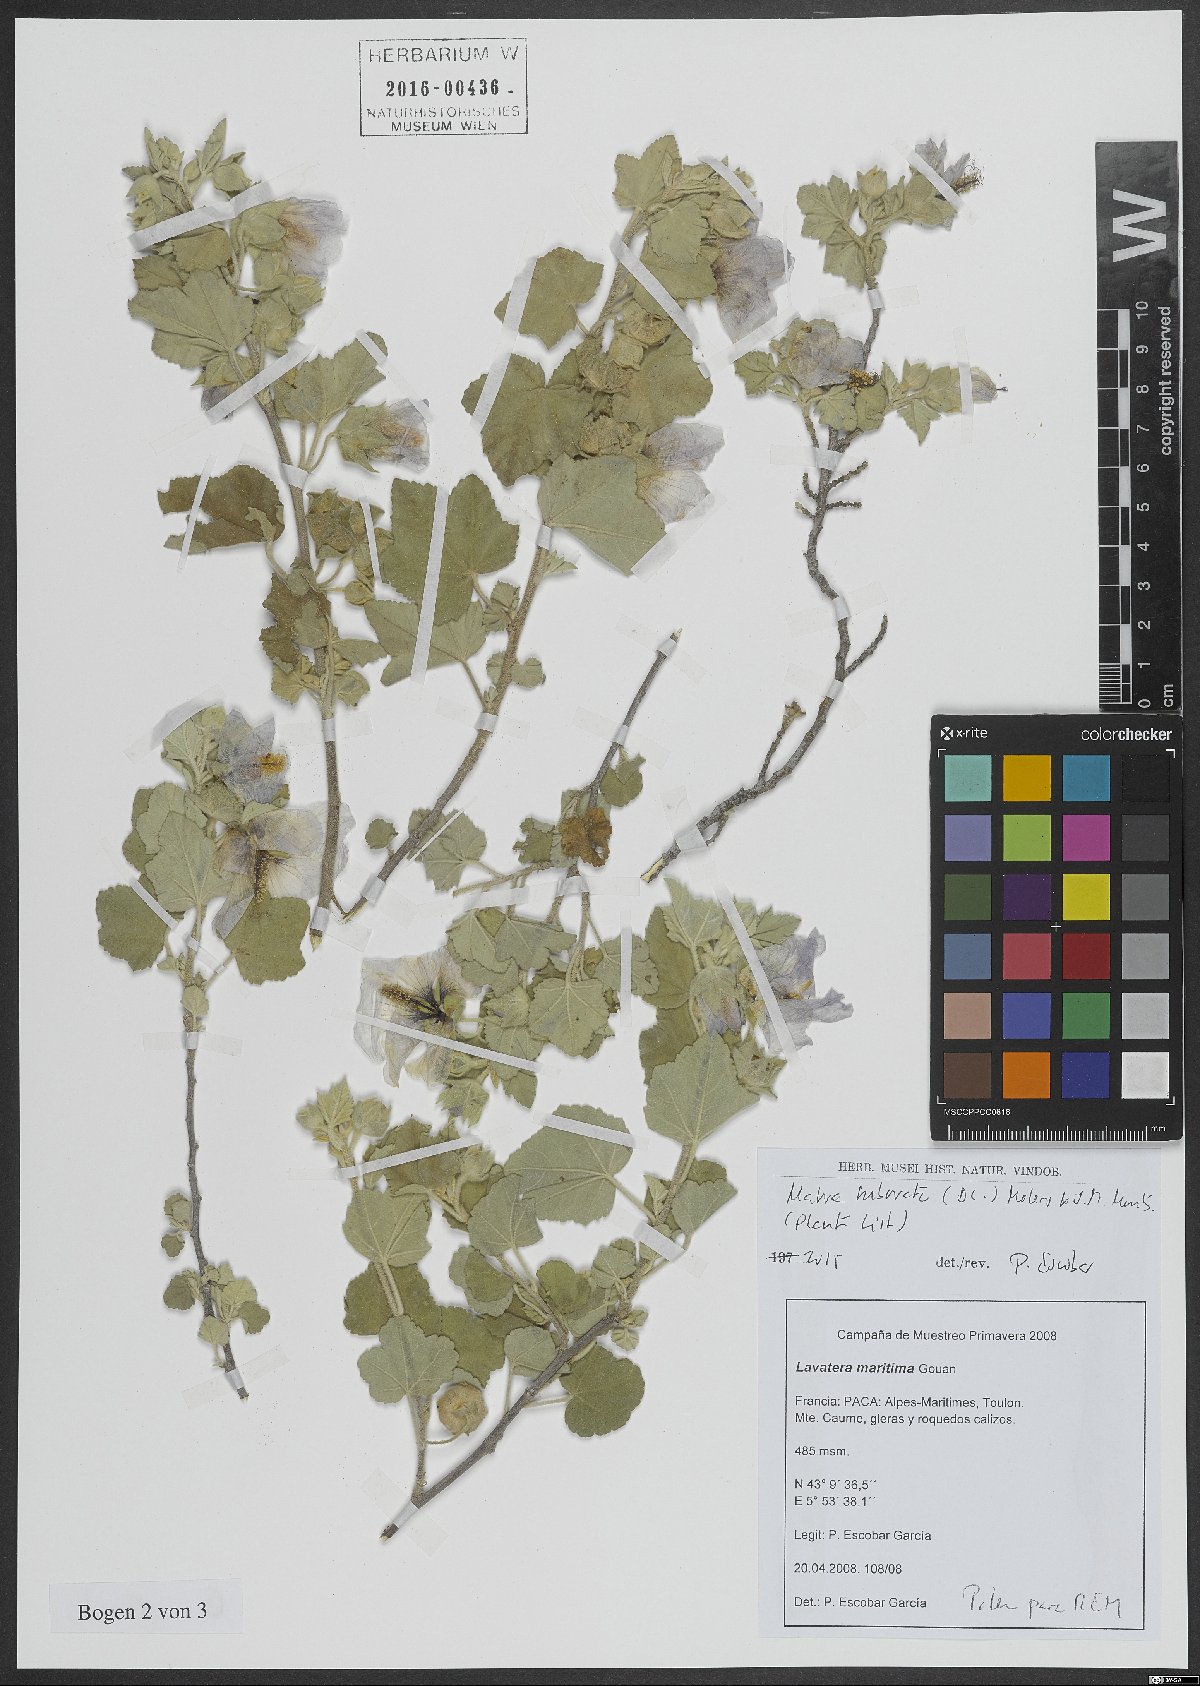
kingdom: Plantae
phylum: Tracheophyta
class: Magnoliopsida
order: Malvales
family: Malvaceae
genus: Malva
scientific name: Malva subovata
